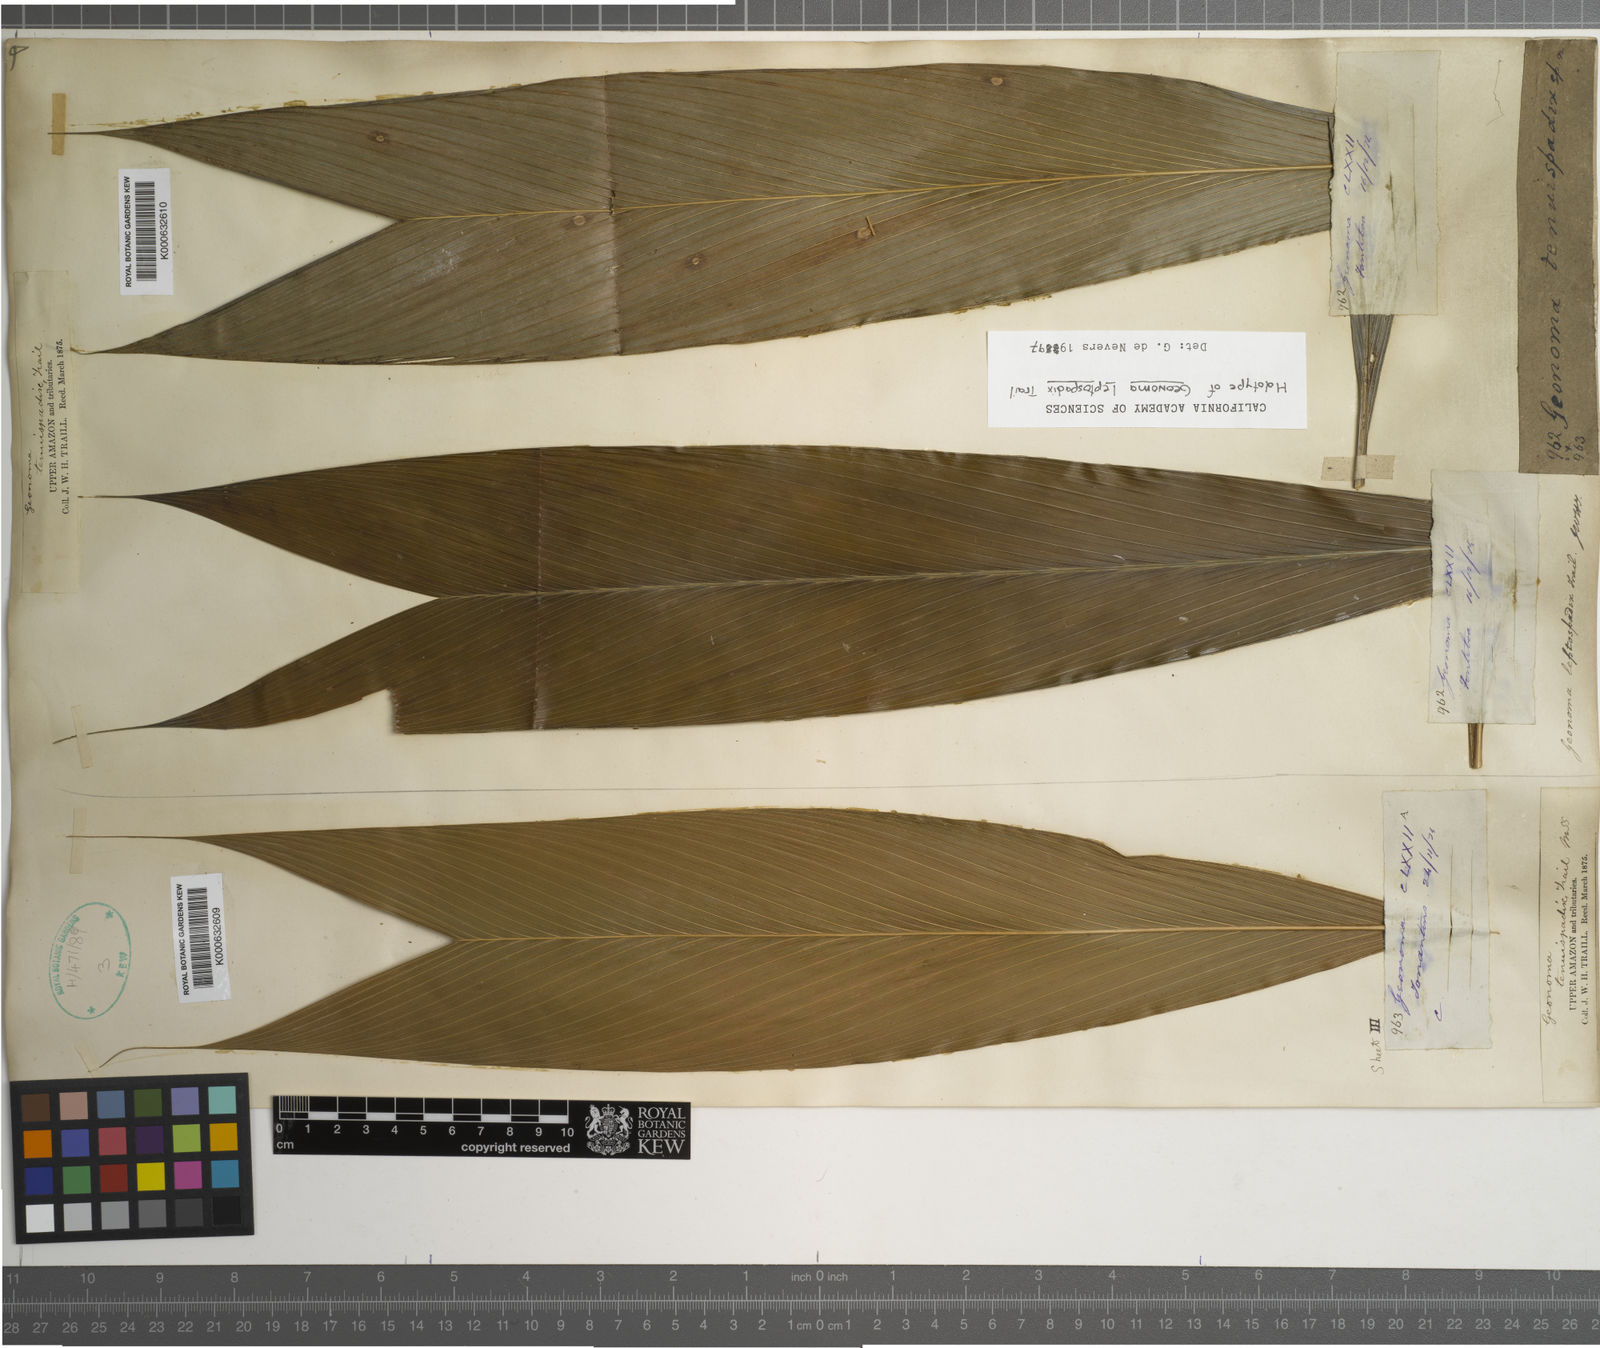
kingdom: Plantae
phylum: Tracheophyta
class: Liliopsida
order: Arecales
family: Arecaceae
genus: Geonoma
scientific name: Geonoma leptospadix
